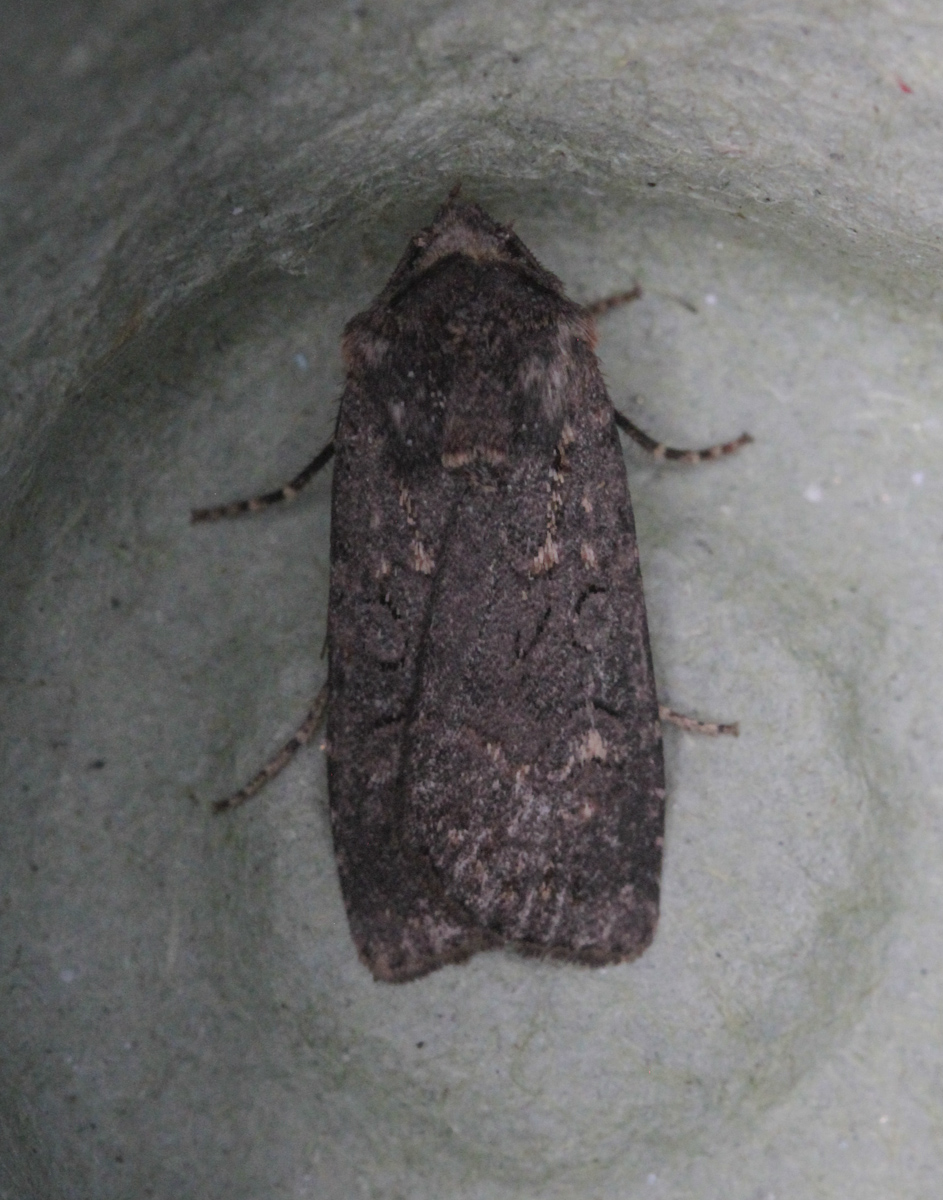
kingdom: Animalia
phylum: Arthropoda
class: Insecta
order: Lepidoptera
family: Noctuidae
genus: Euxoa
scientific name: Euxoa nigricans
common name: Garden dart
